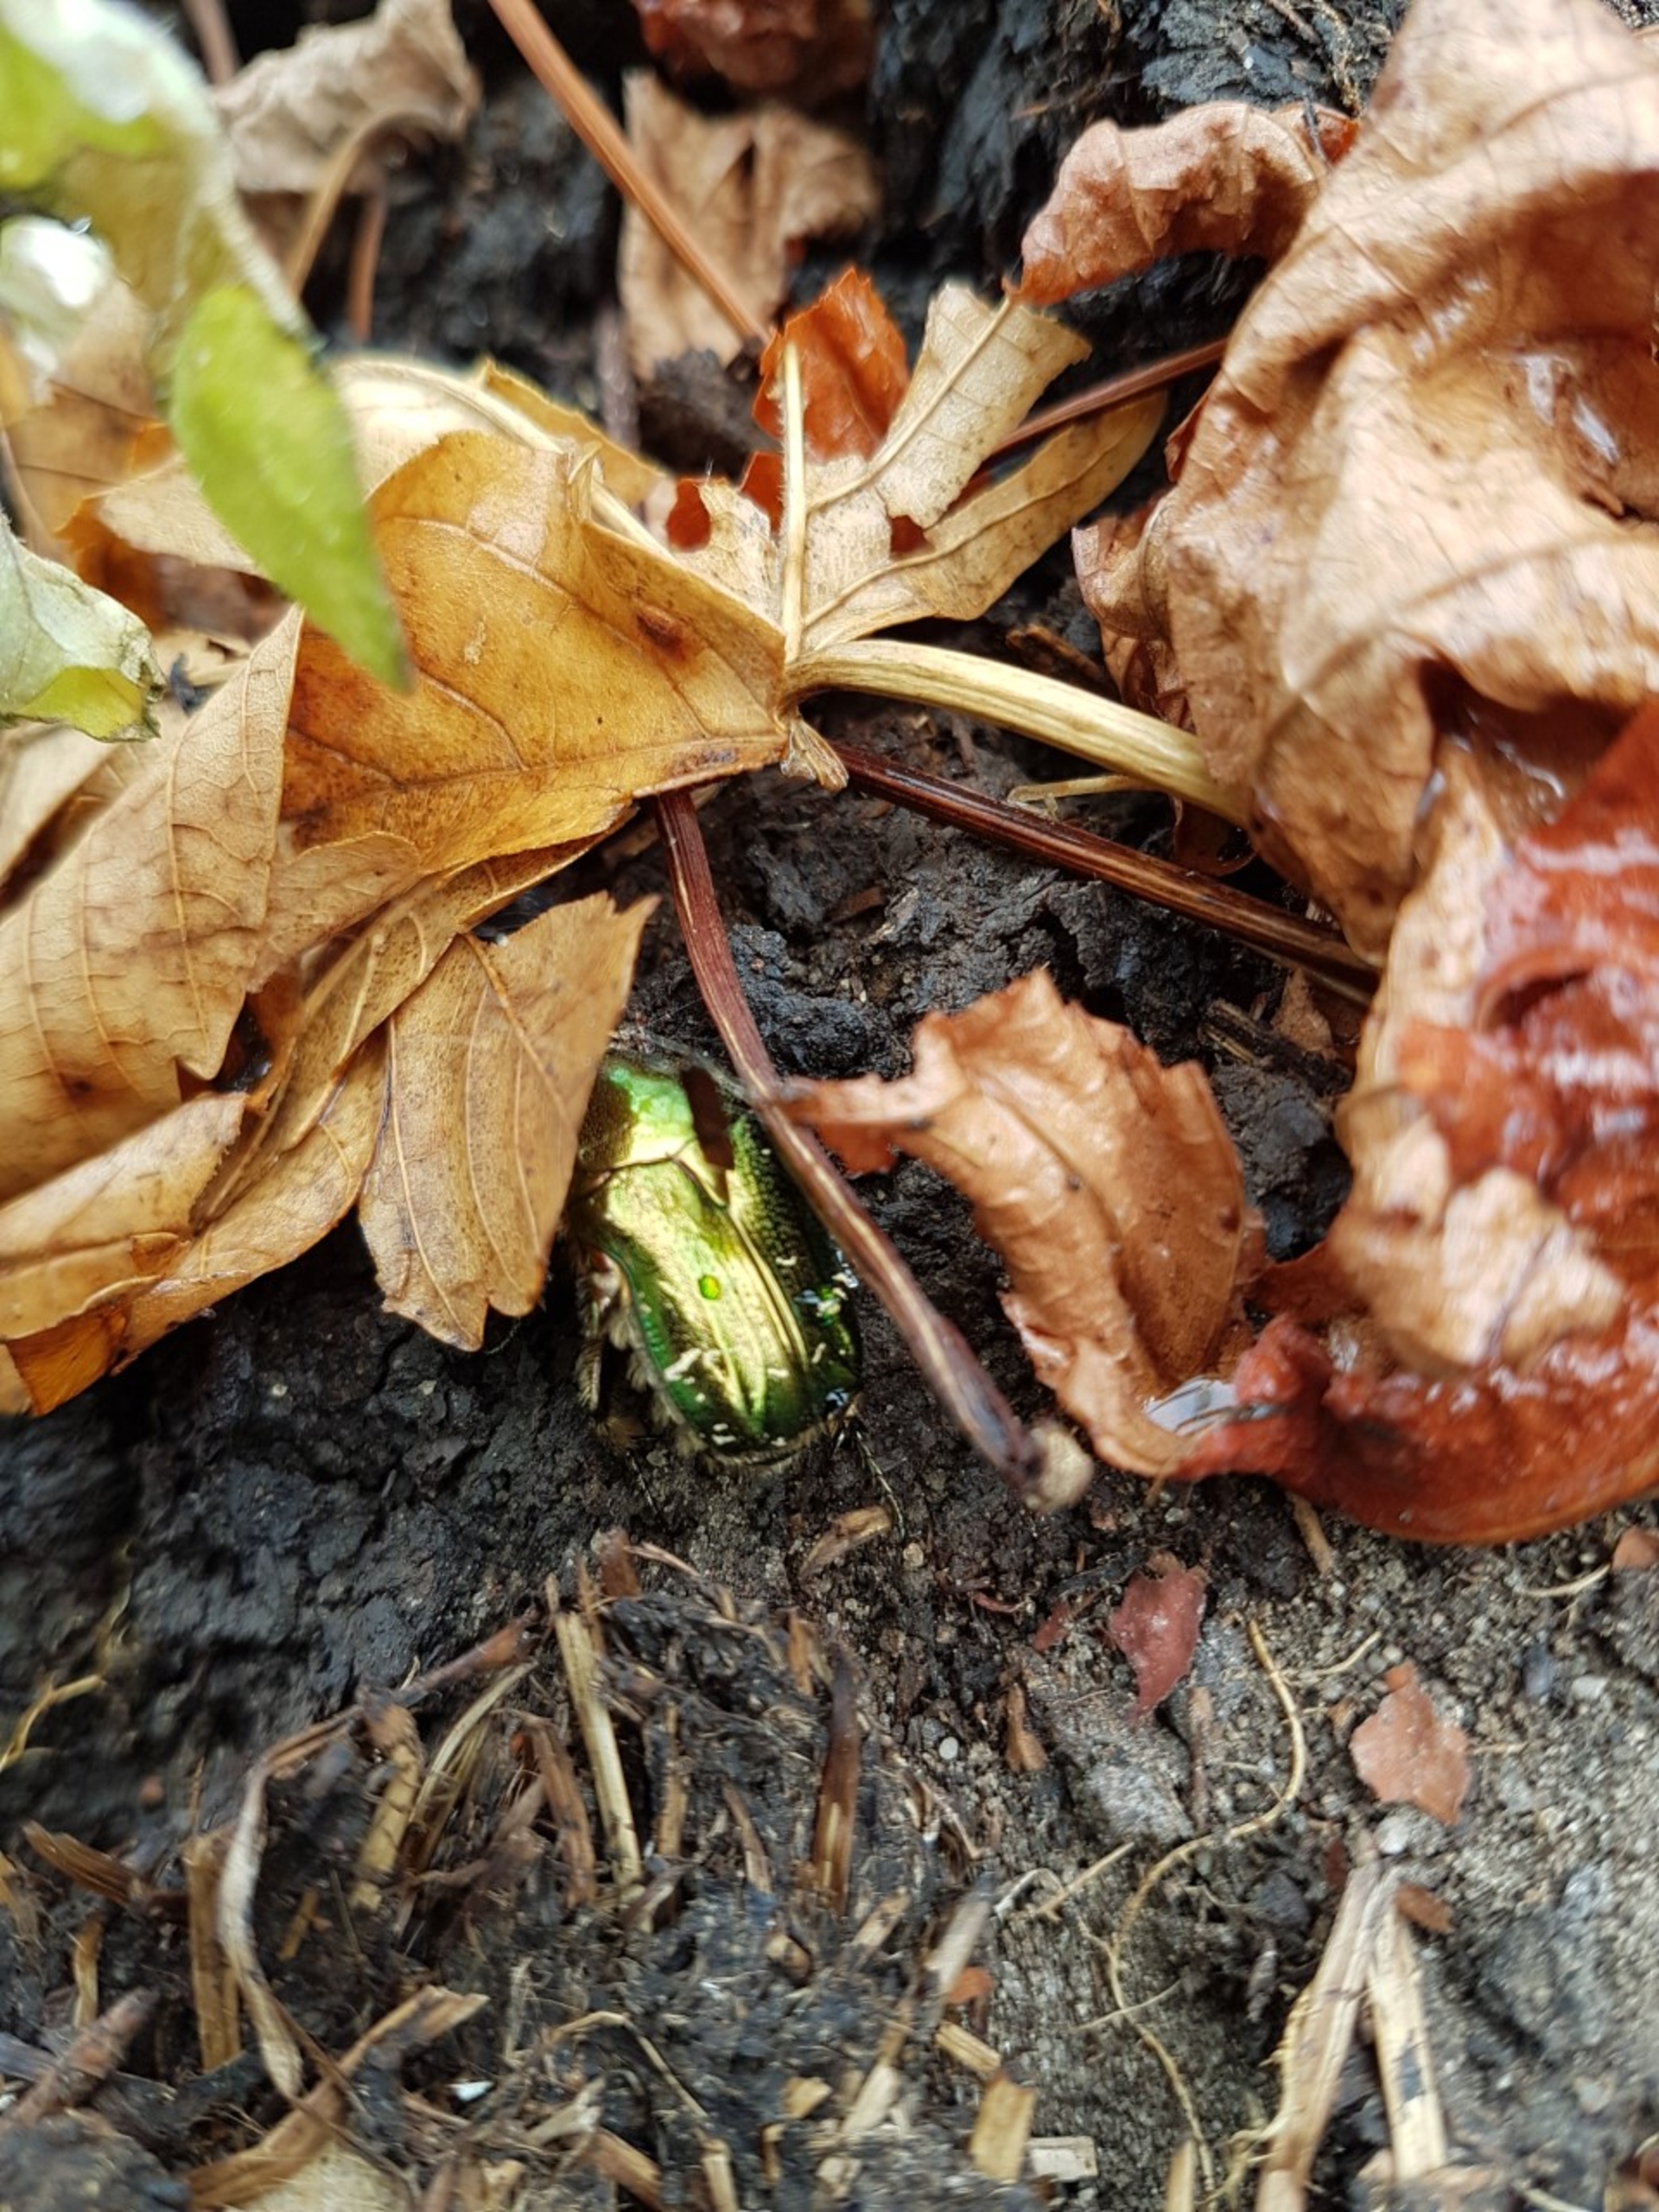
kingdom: Animalia
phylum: Arthropoda
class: Insecta
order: Coleoptera
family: Scarabaeidae
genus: Cetonia
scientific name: Cetonia aurata
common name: Grøn guldbasse
